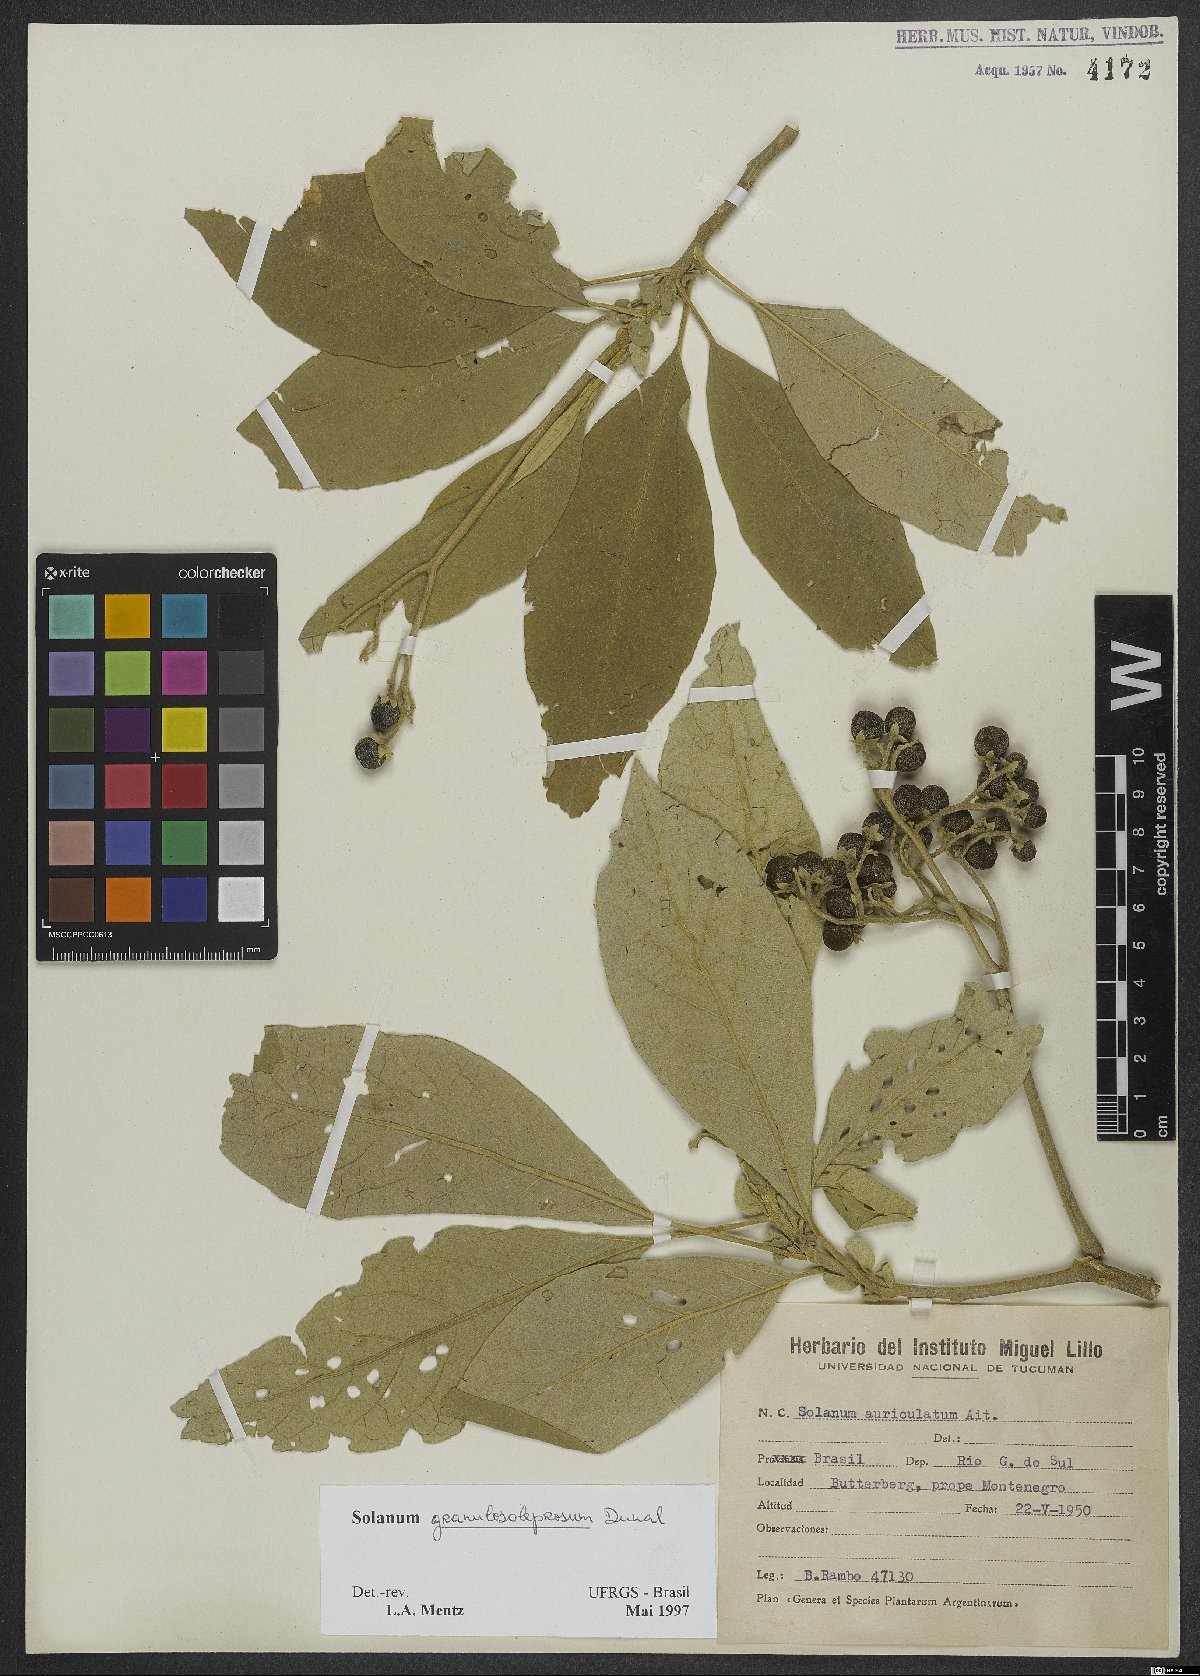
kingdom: Plantae
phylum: Tracheophyta
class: Magnoliopsida
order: Solanales
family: Solanaceae
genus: Solanum
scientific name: Solanum granulosoleprosum
